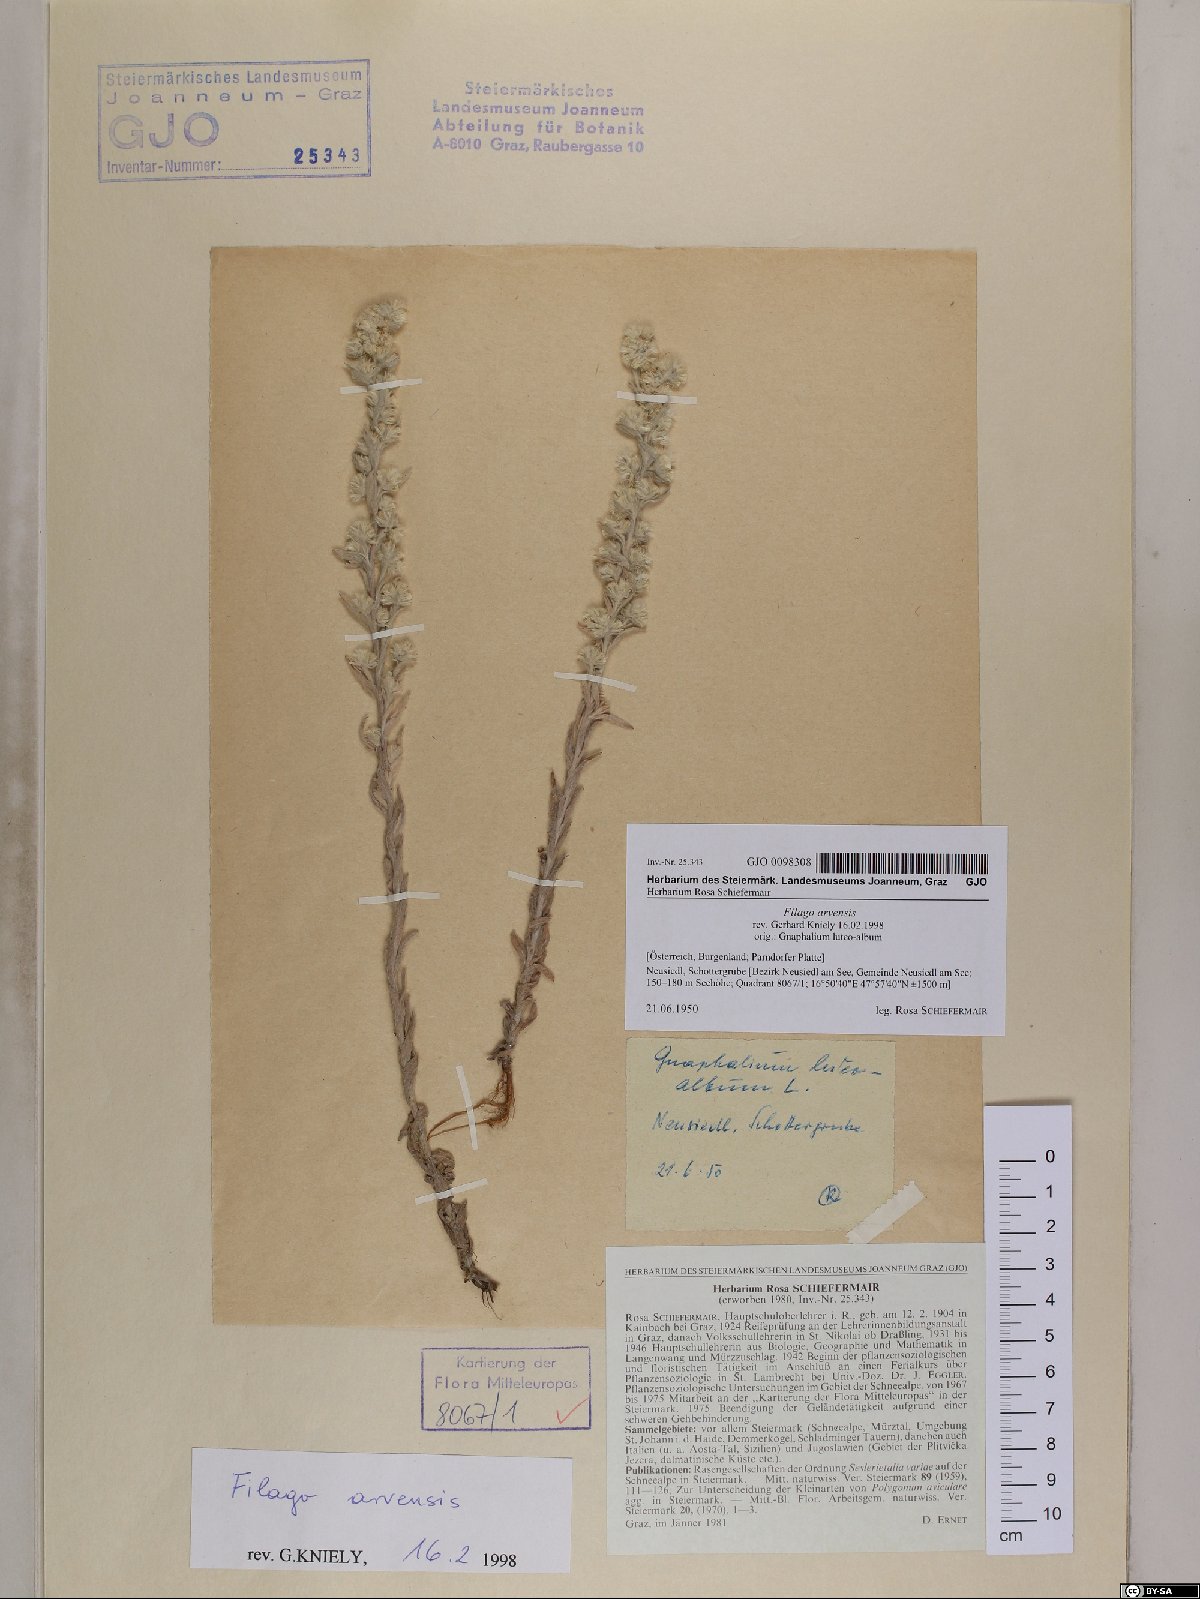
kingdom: Plantae
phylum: Tracheophyta
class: Magnoliopsida
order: Asterales
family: Asteraceae
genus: Filago
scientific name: Filago arvensis
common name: Field cudweed
